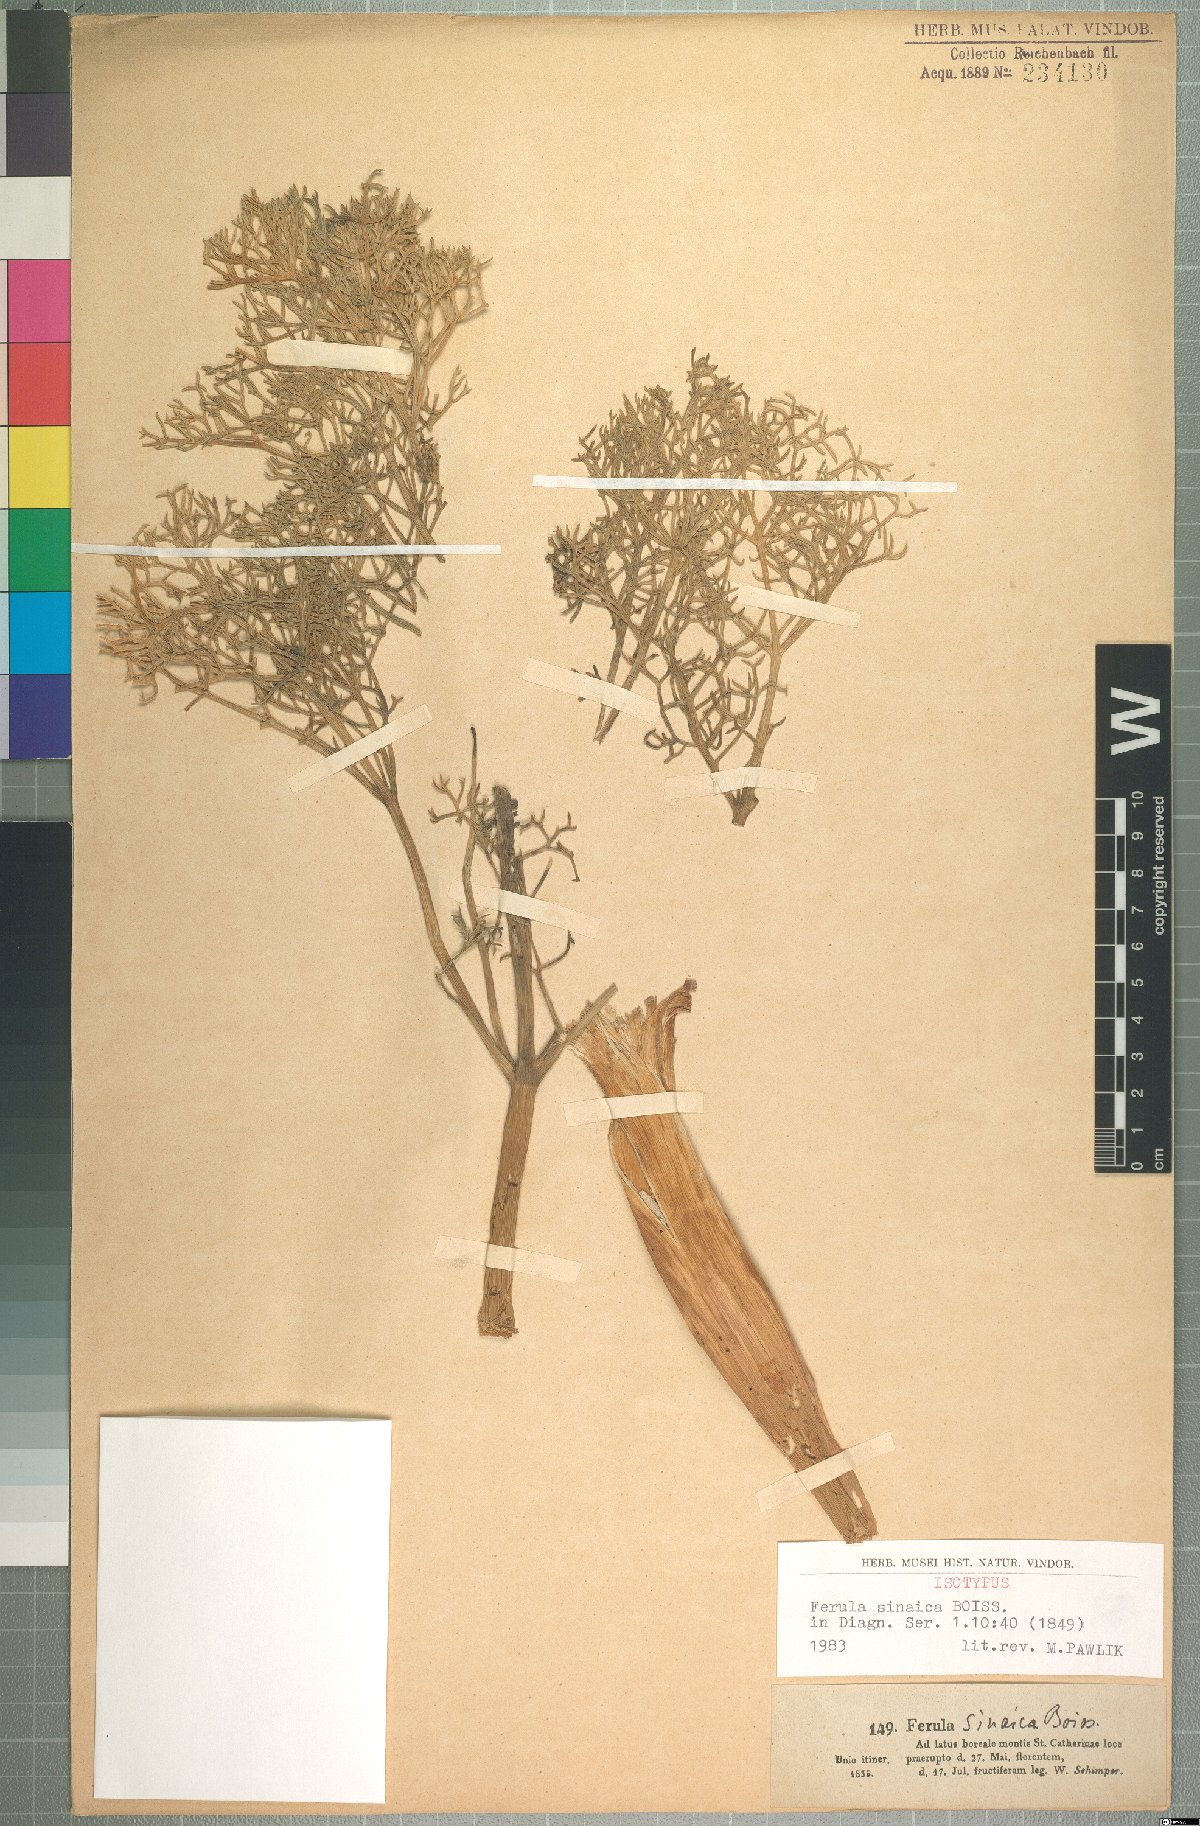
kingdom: Plantae
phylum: Tracheophyta
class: Magnoliopsida
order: Apiales
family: Apiaceae
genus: Ferula
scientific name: Ferula sinaica
